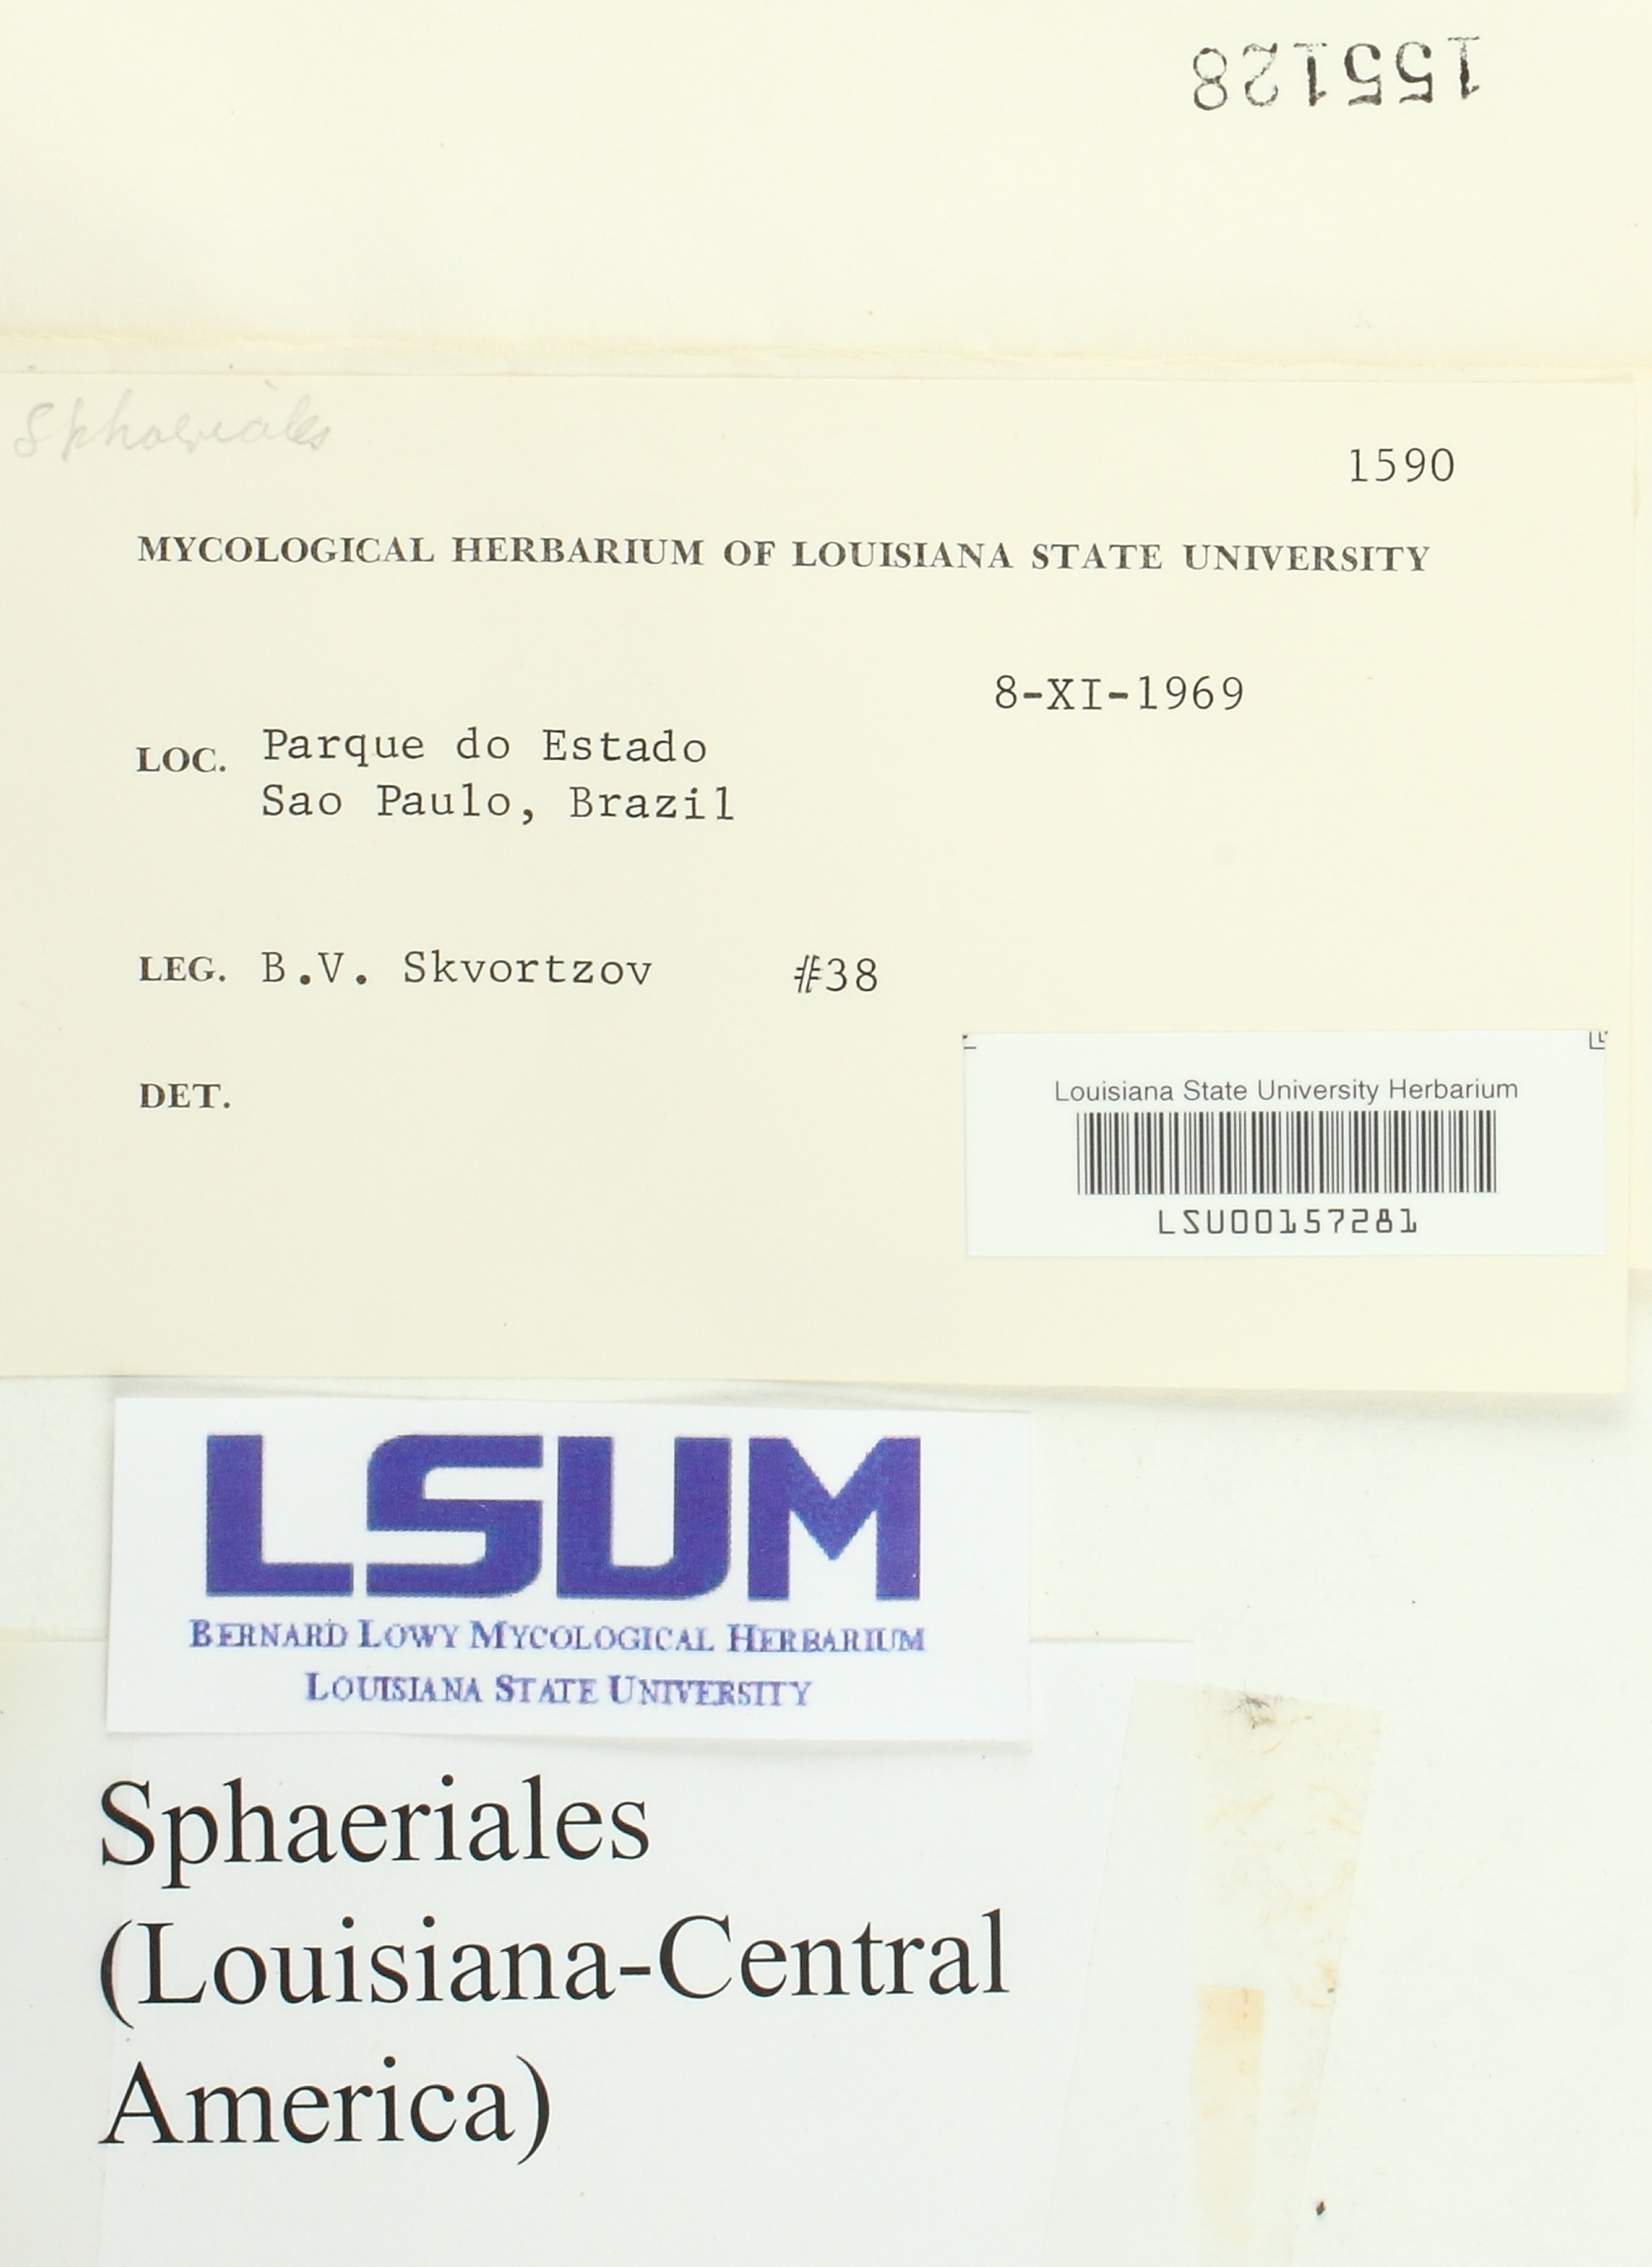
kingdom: Fungi
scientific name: Fungi
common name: Fungi
